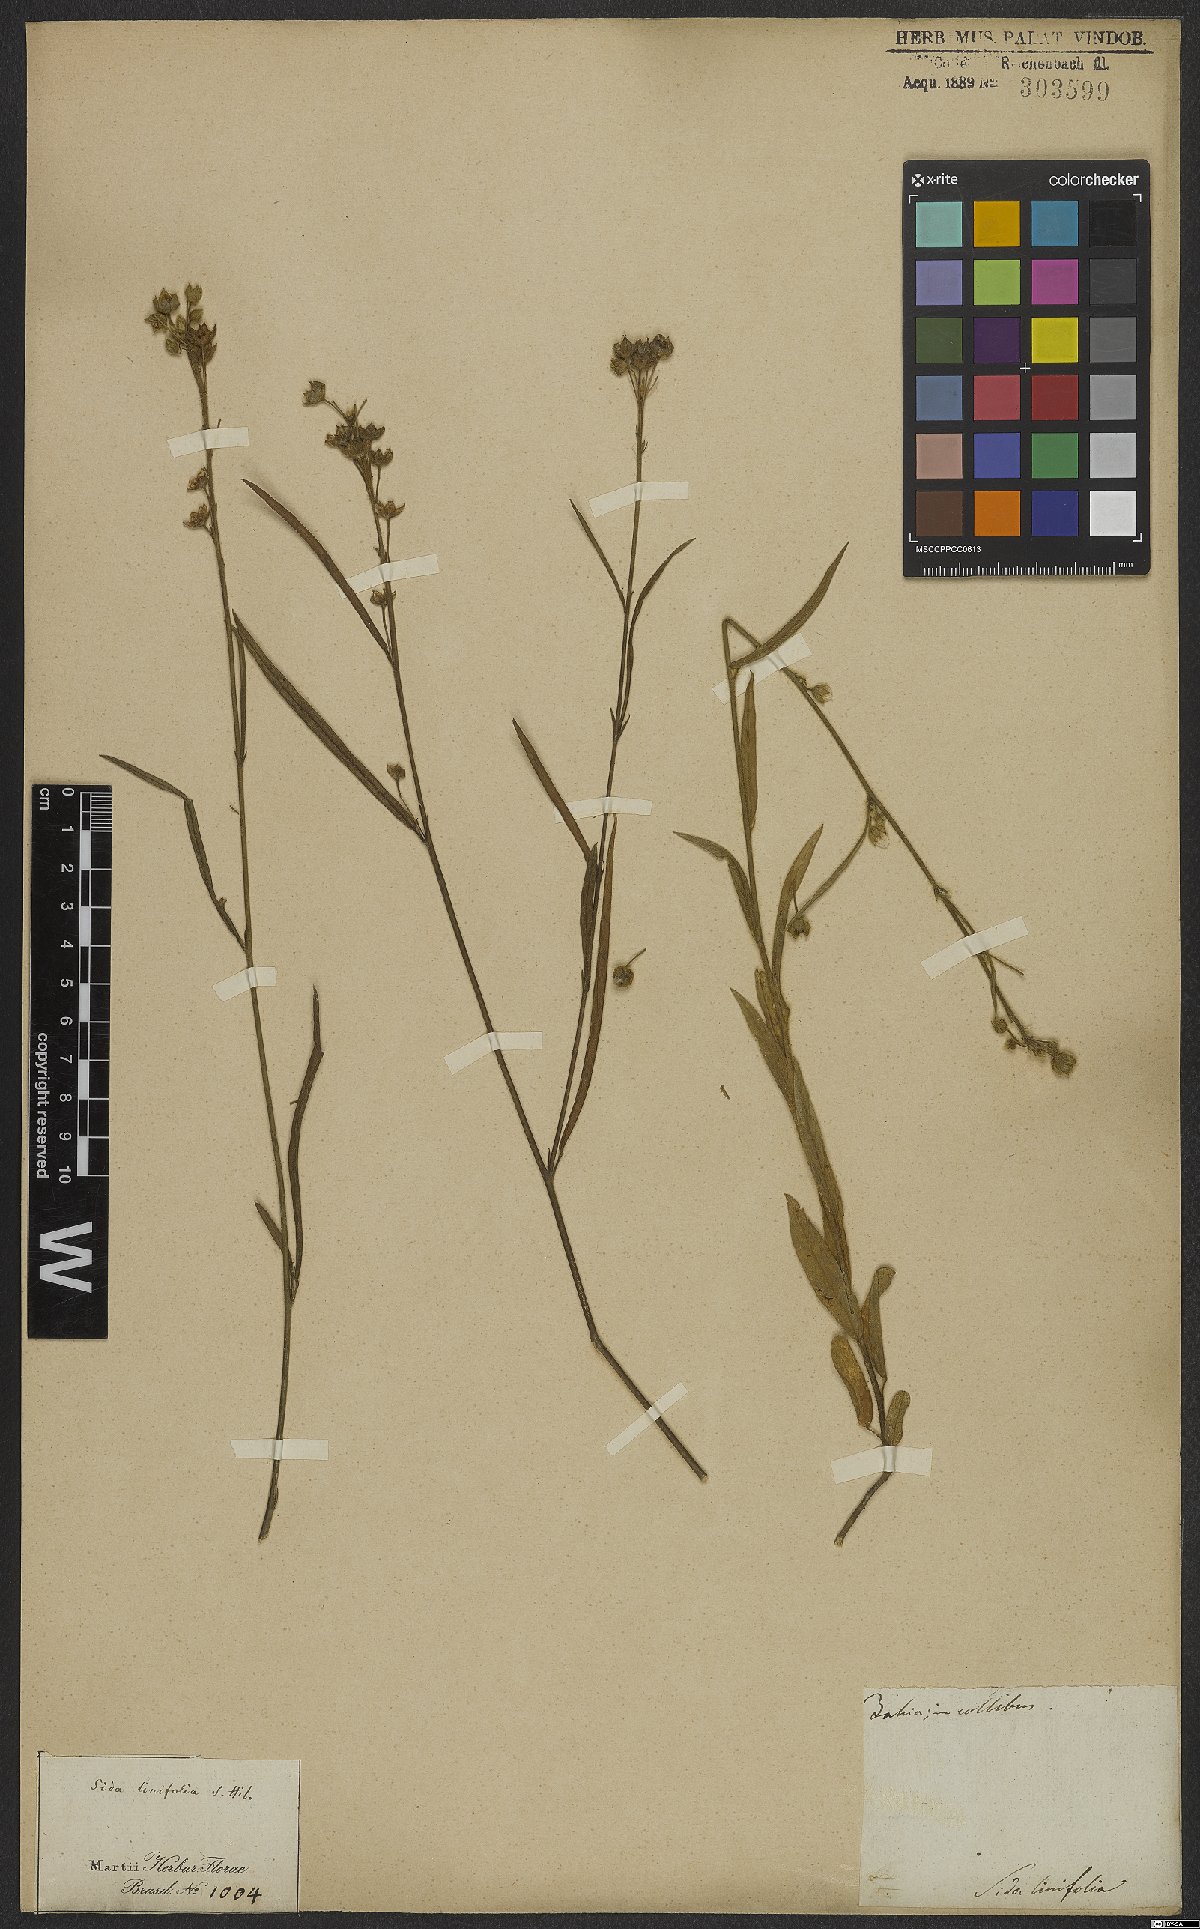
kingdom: Plantae
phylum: Tracheophyta
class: Magnoliopsida
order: Malvales
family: Malvaceae
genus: Sida
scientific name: Sida linifolia
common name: Flaxleaf fanpetals
